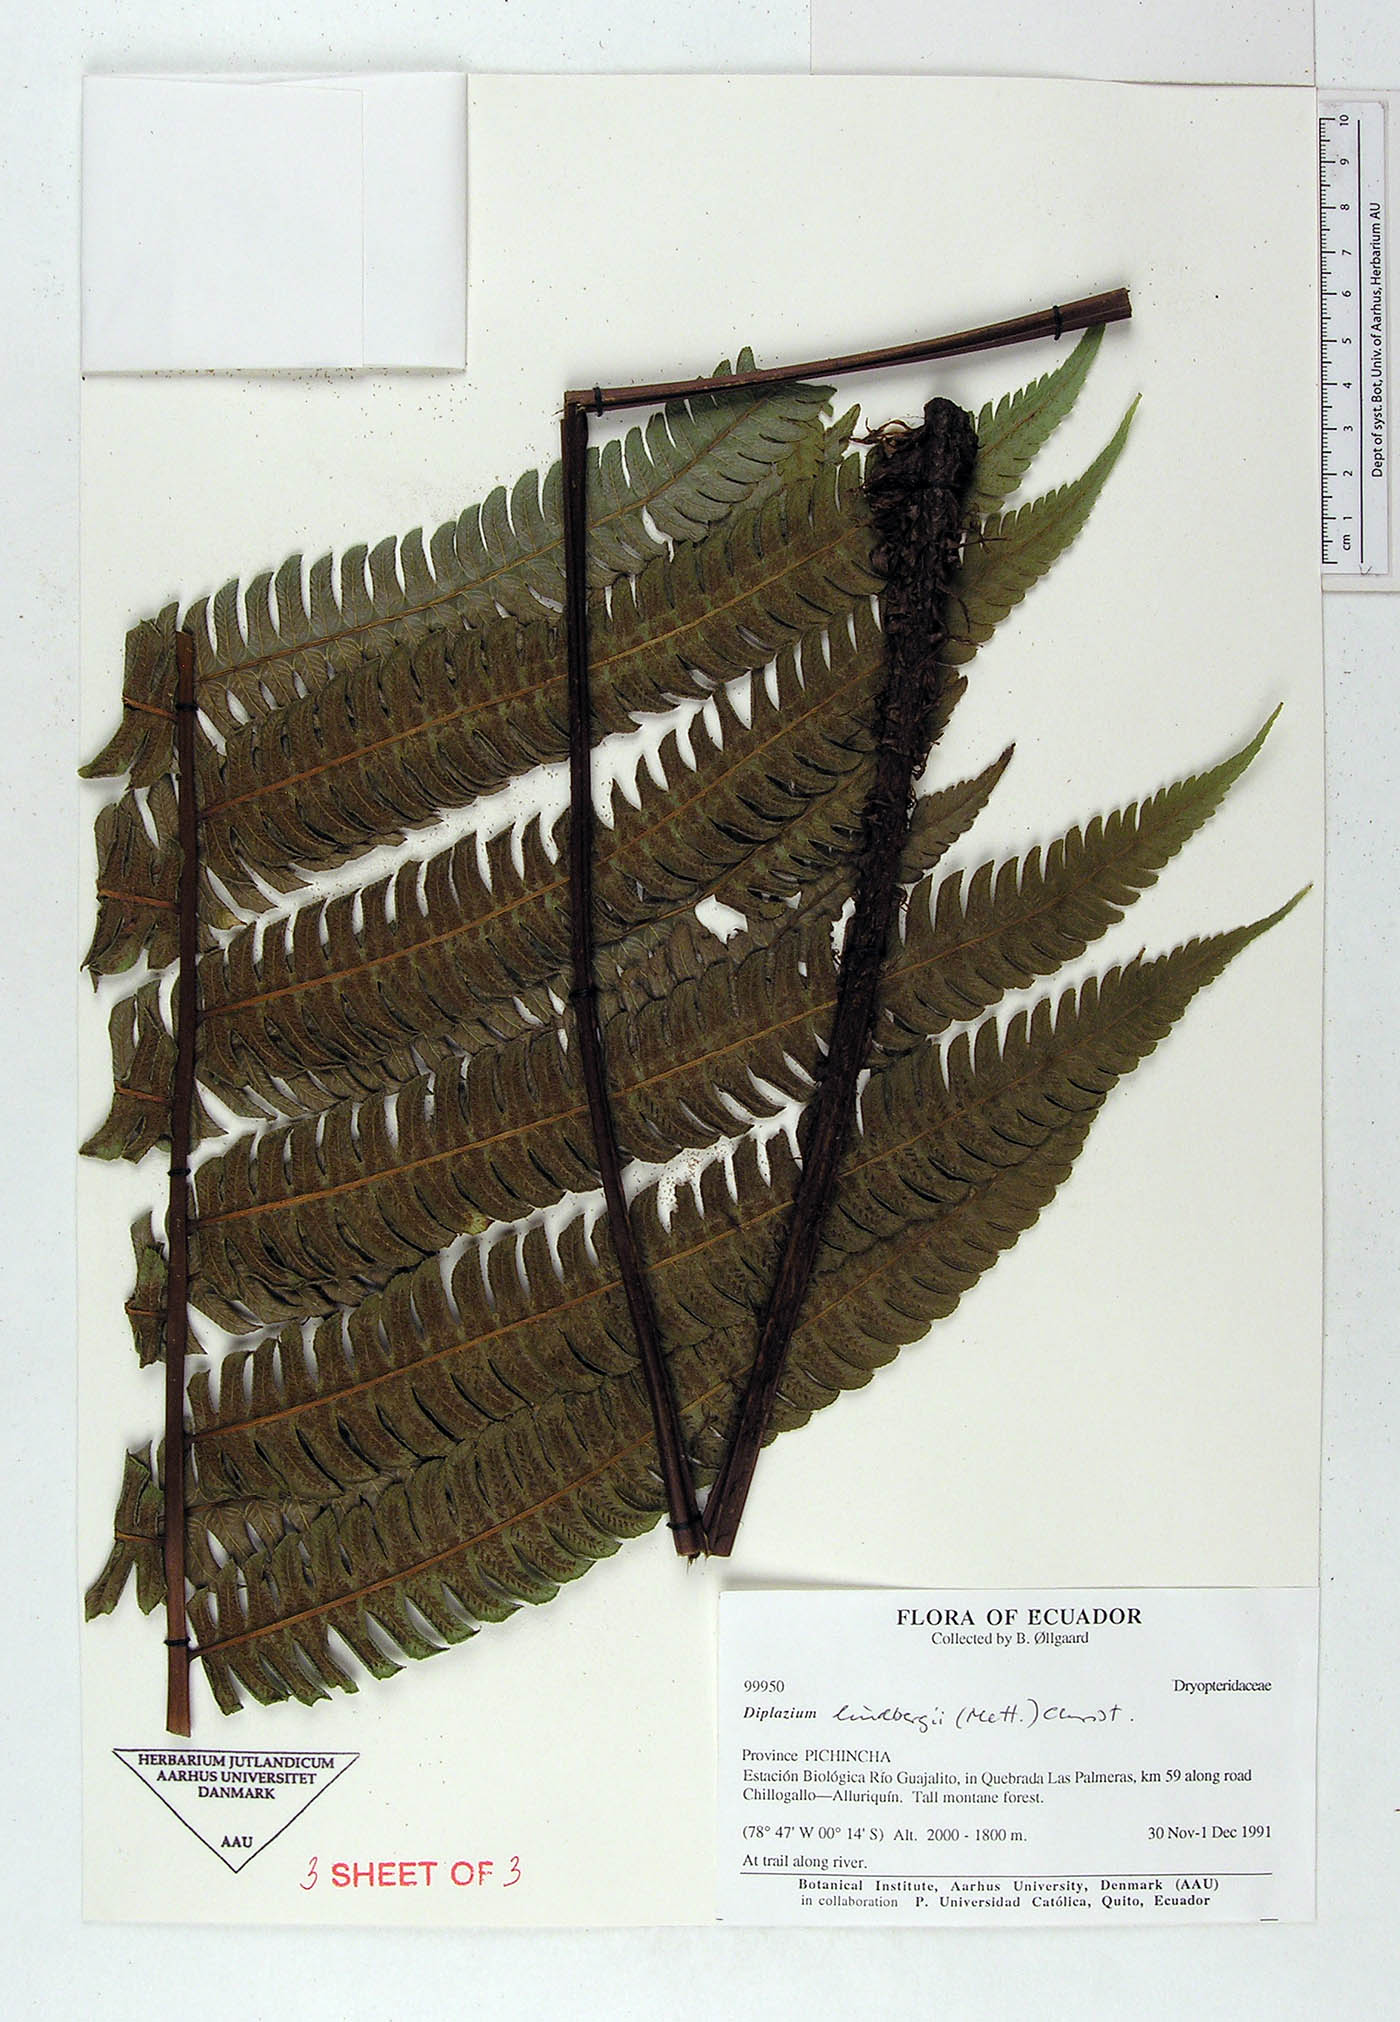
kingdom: Plantae
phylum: Tracheophyta
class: Polypodiopsida
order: Polypodiales
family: Athyriaceae
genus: Diplazium
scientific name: Diplazium lindbergii
